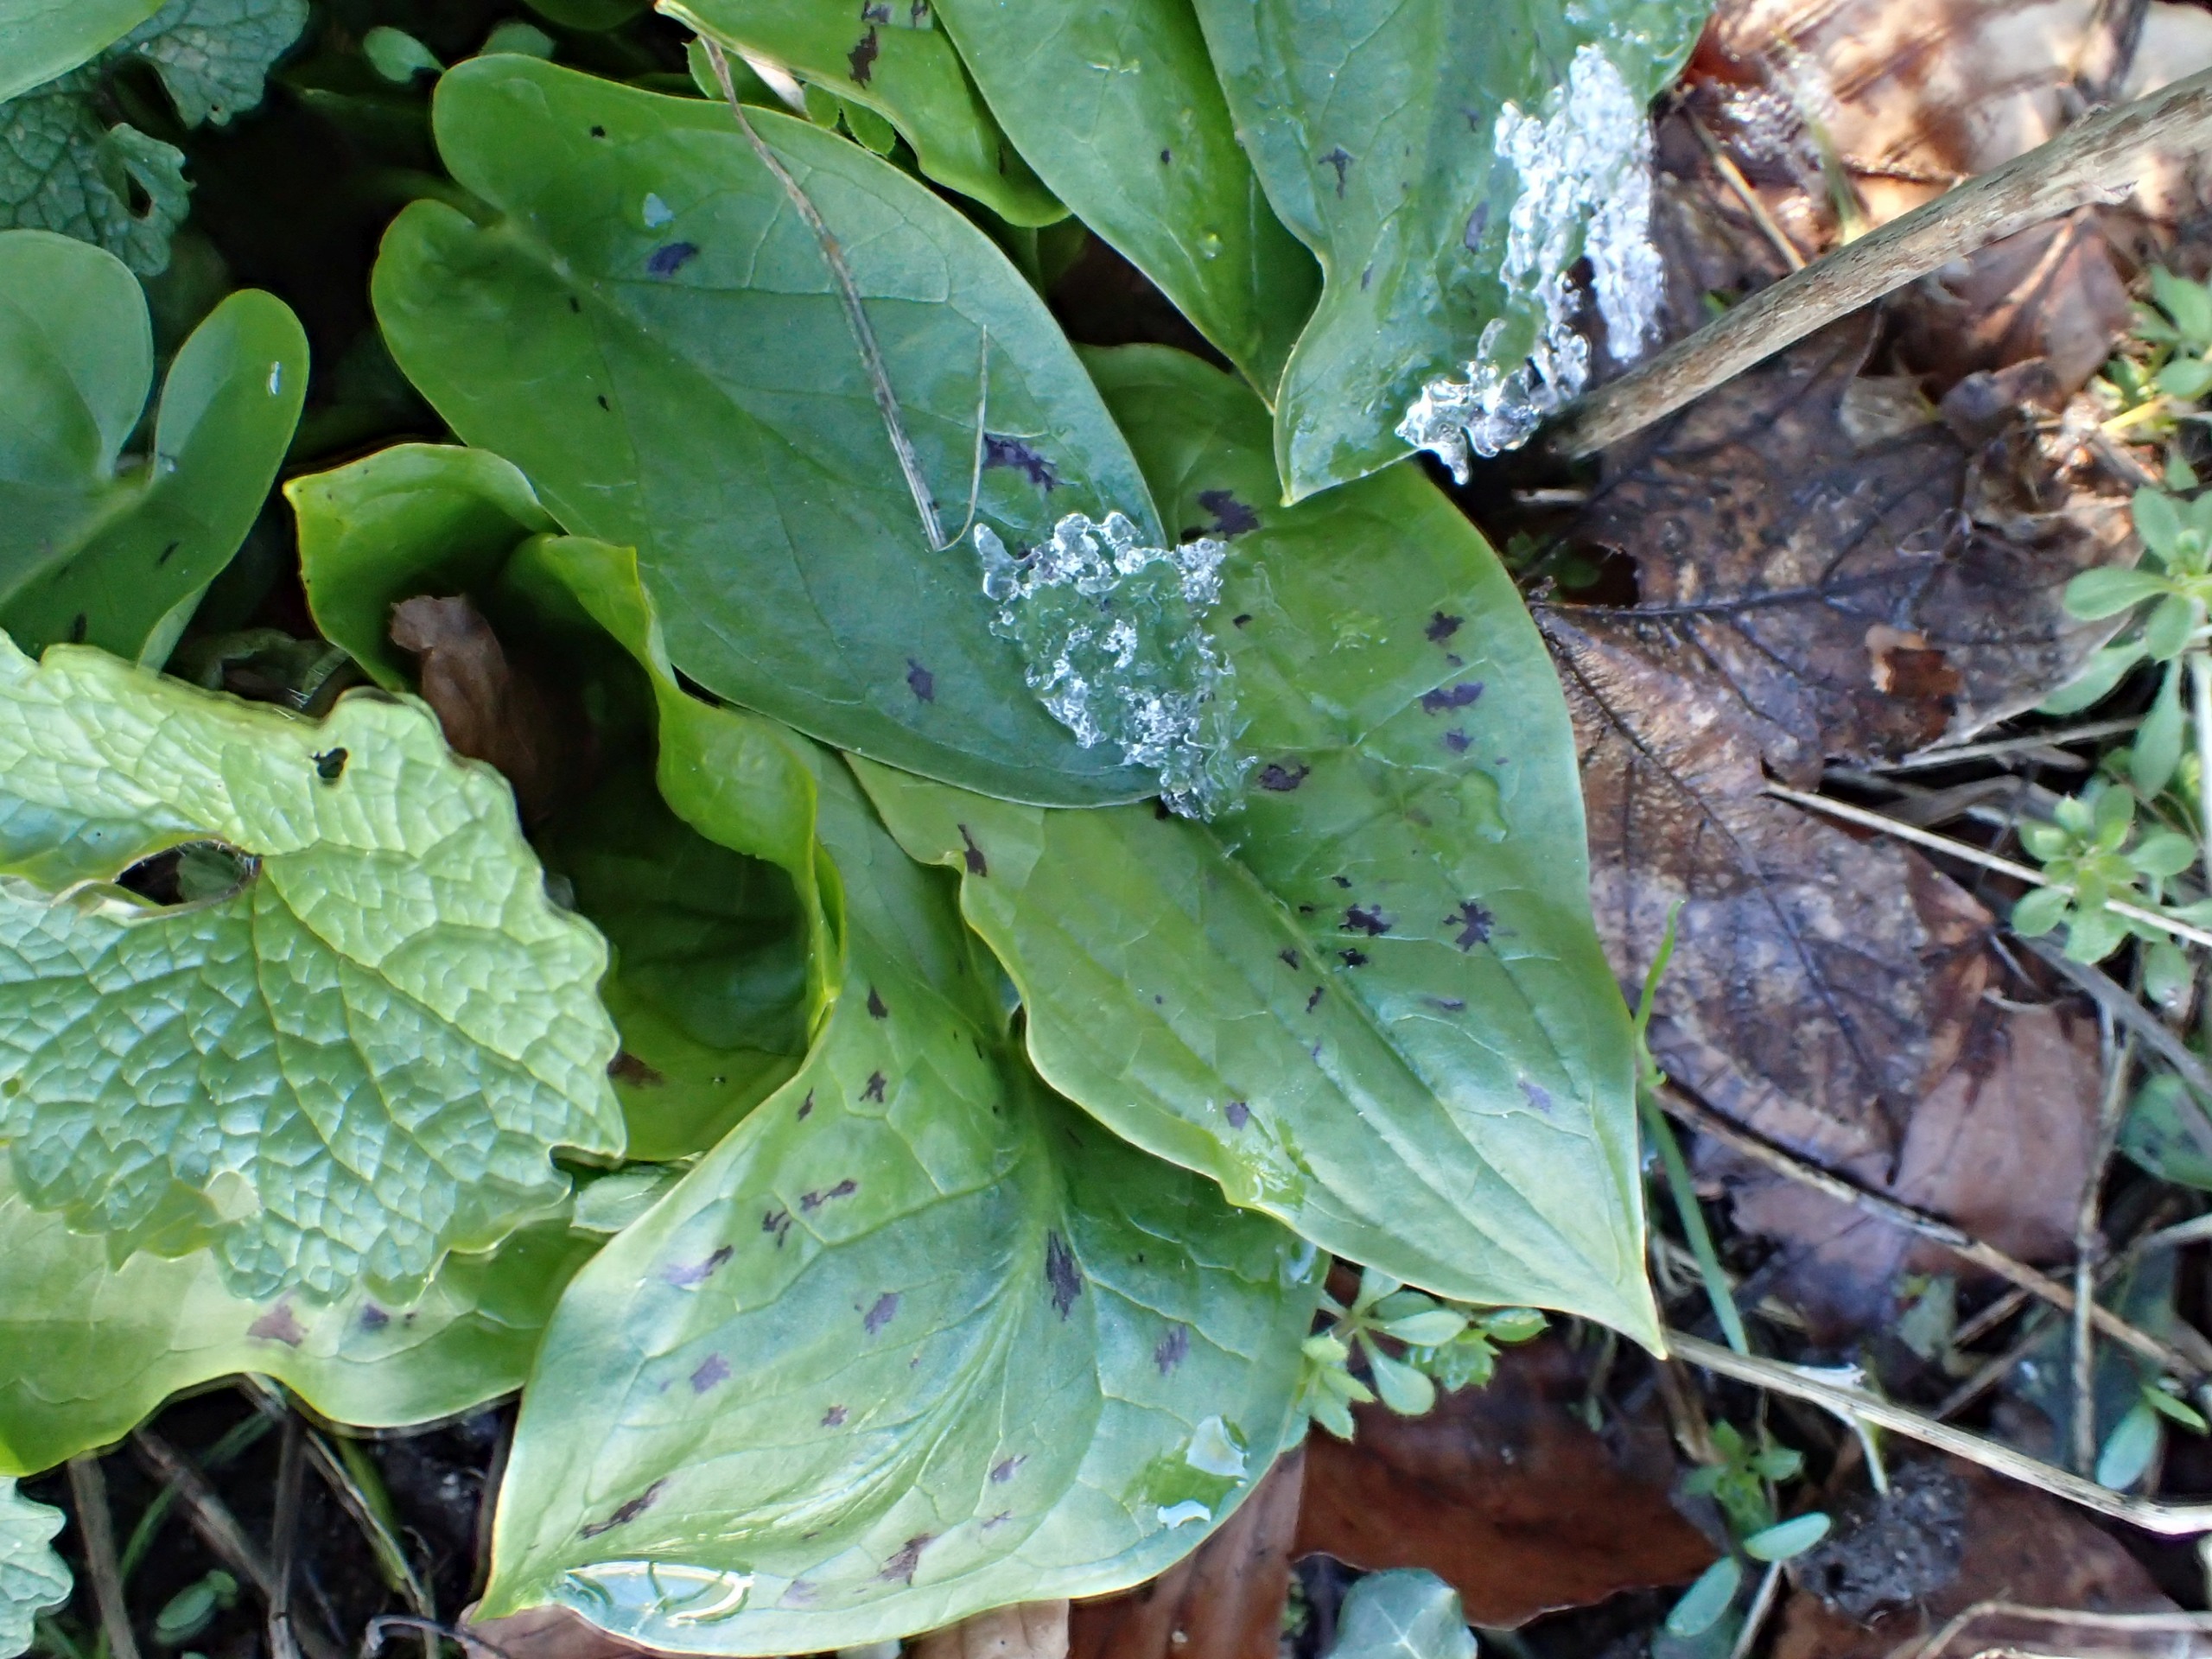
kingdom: Plantae
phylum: Tracheophyta
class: Liliopsida
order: Alismatales
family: Araceae
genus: Arum
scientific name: Arum maculatum
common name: Plettet arum
